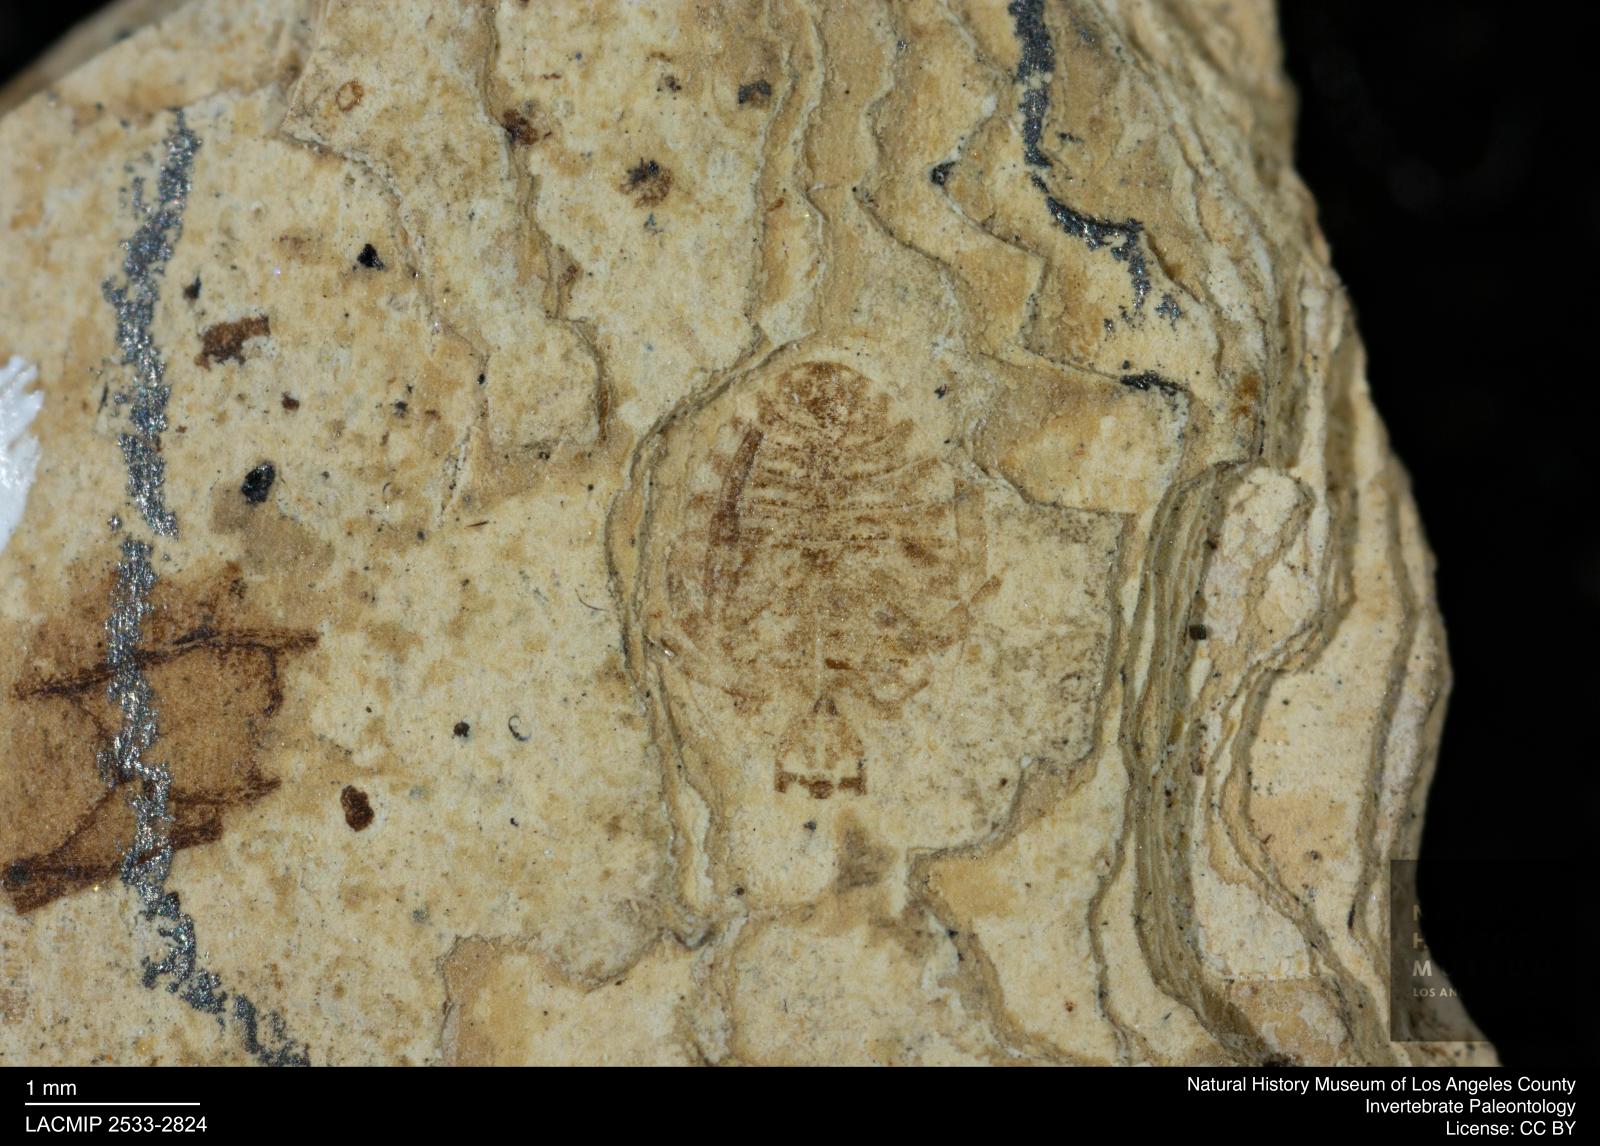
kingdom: Animalia
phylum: Arthropoda
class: Insecta
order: Hemiptera
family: Naucoridae
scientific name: Naucoridae
